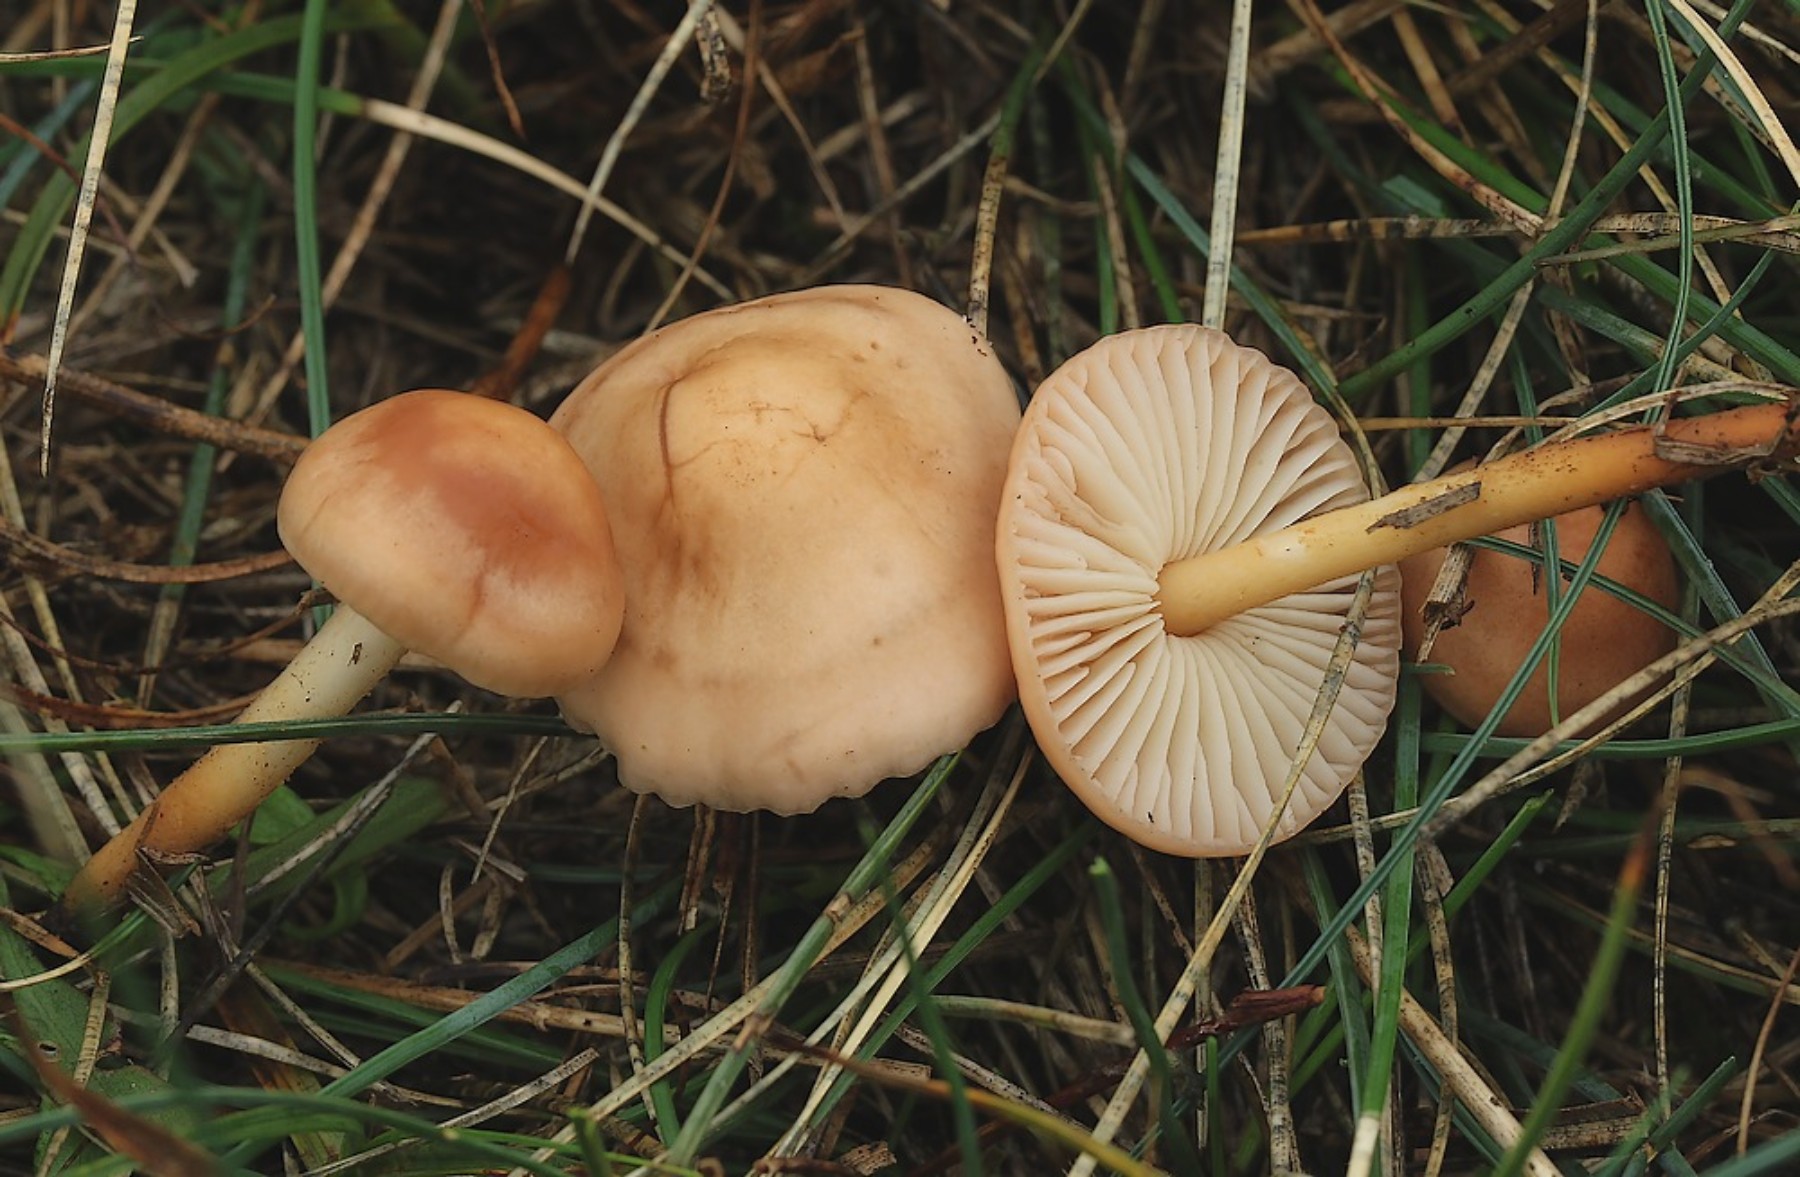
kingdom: Fungi
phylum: Basidiomycota
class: Agaricomycetes
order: Agaricales
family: Marasmiaceae
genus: Marasmius
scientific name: Marasmius oreades
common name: elledans-bruskhat
